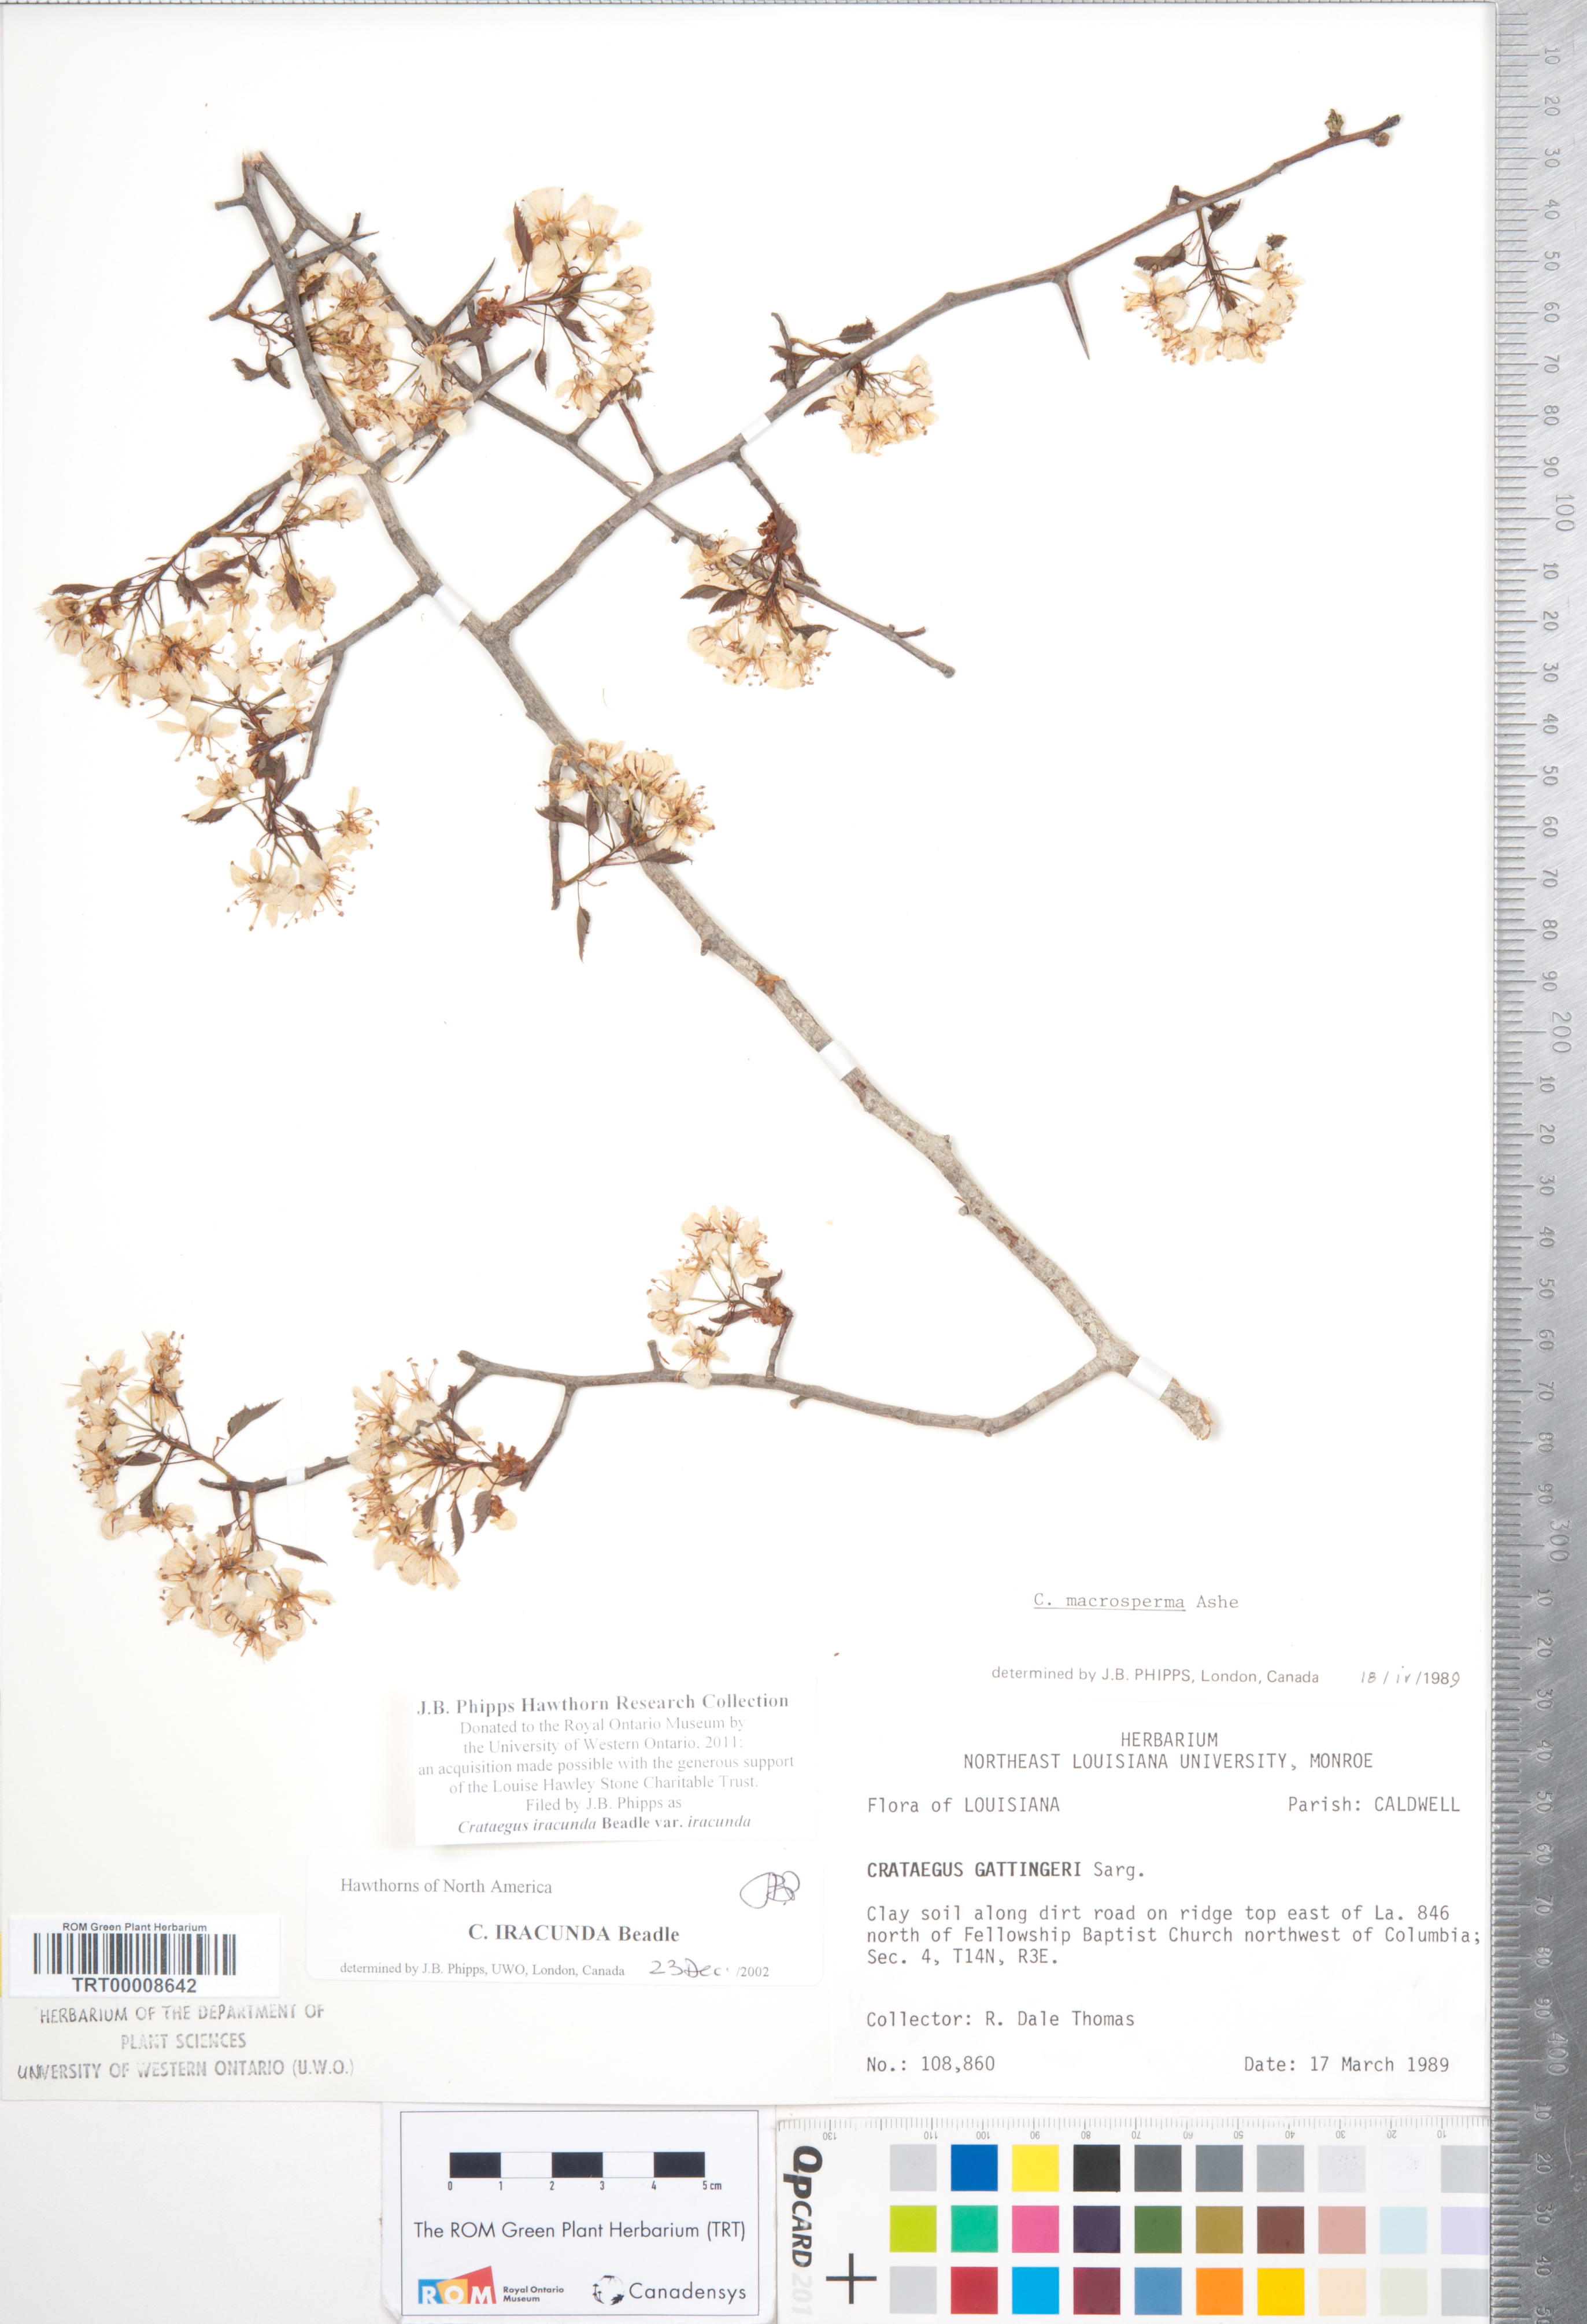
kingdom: Plantae
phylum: Tracheophyta
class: Magnoliopsida
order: Rosales
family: Rosaceae
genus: Crataegus
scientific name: Crataegus iracunda
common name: Stolon-bearing hawthorn
